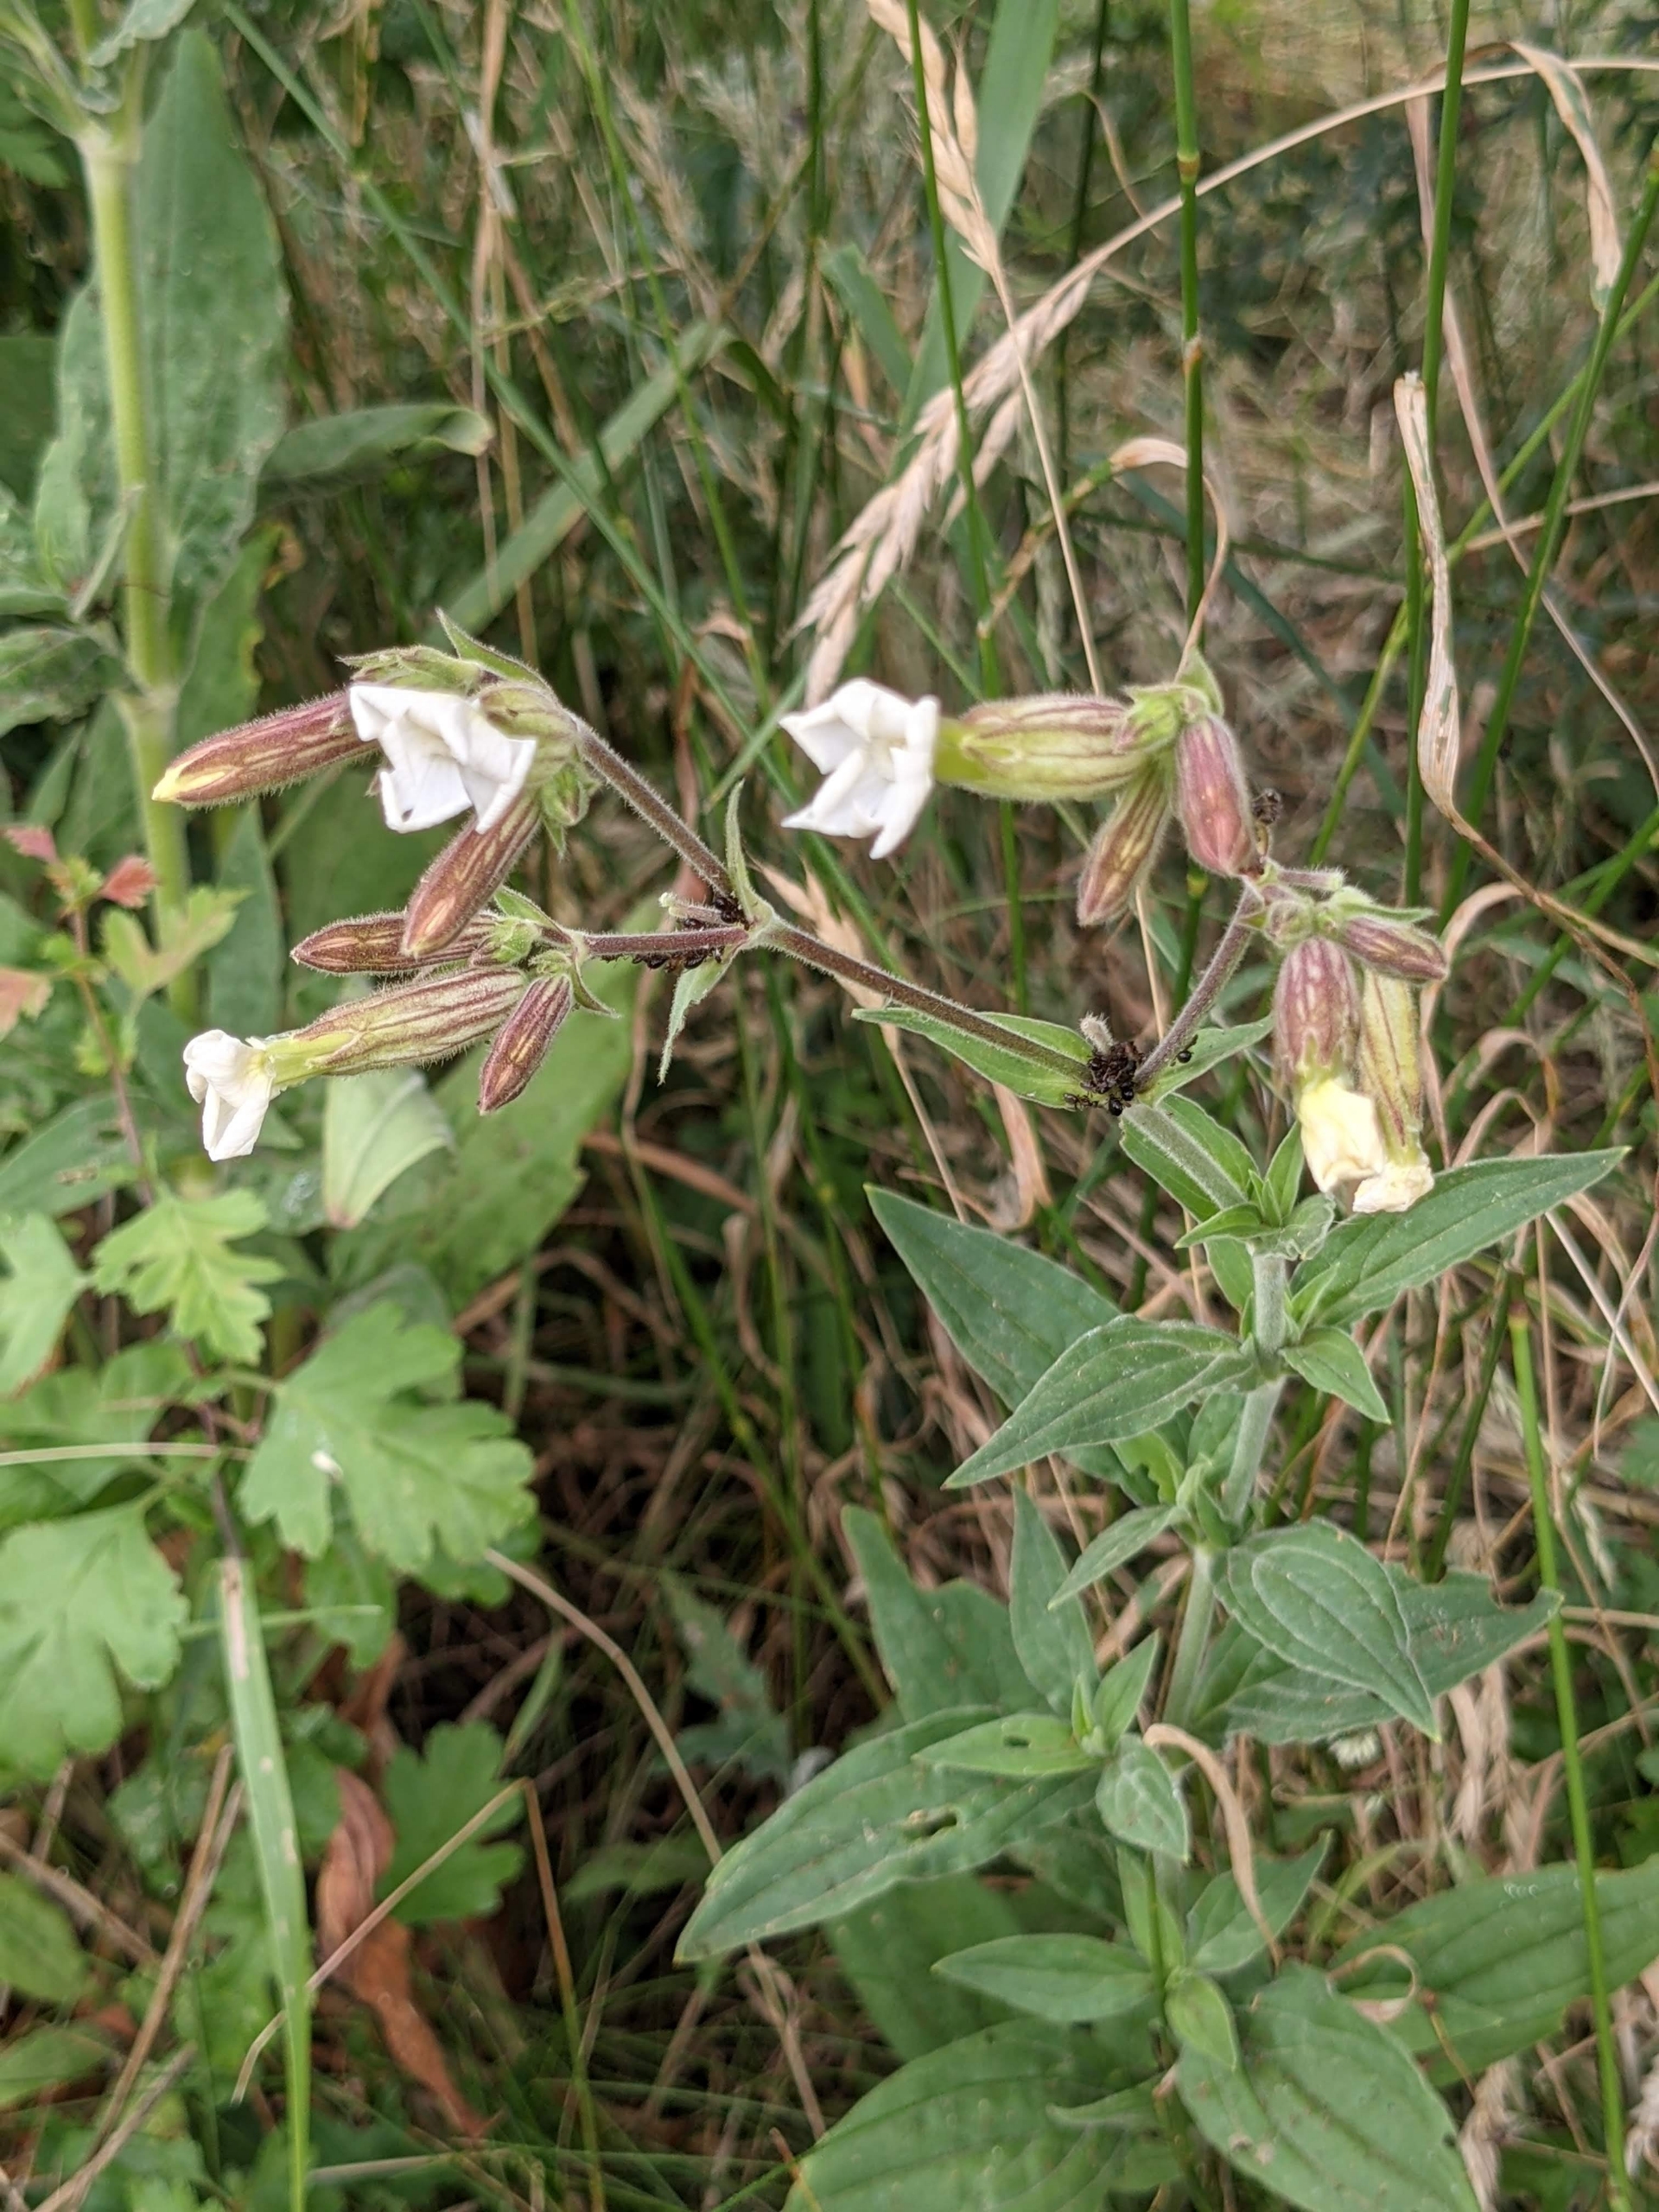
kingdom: Plantae
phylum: Tracheophyta
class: Magnoliopsida
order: Caryophyllales
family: Caryophyllaceae
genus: Silene
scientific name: Silene latifolia
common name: Aftenpragtstjerne
